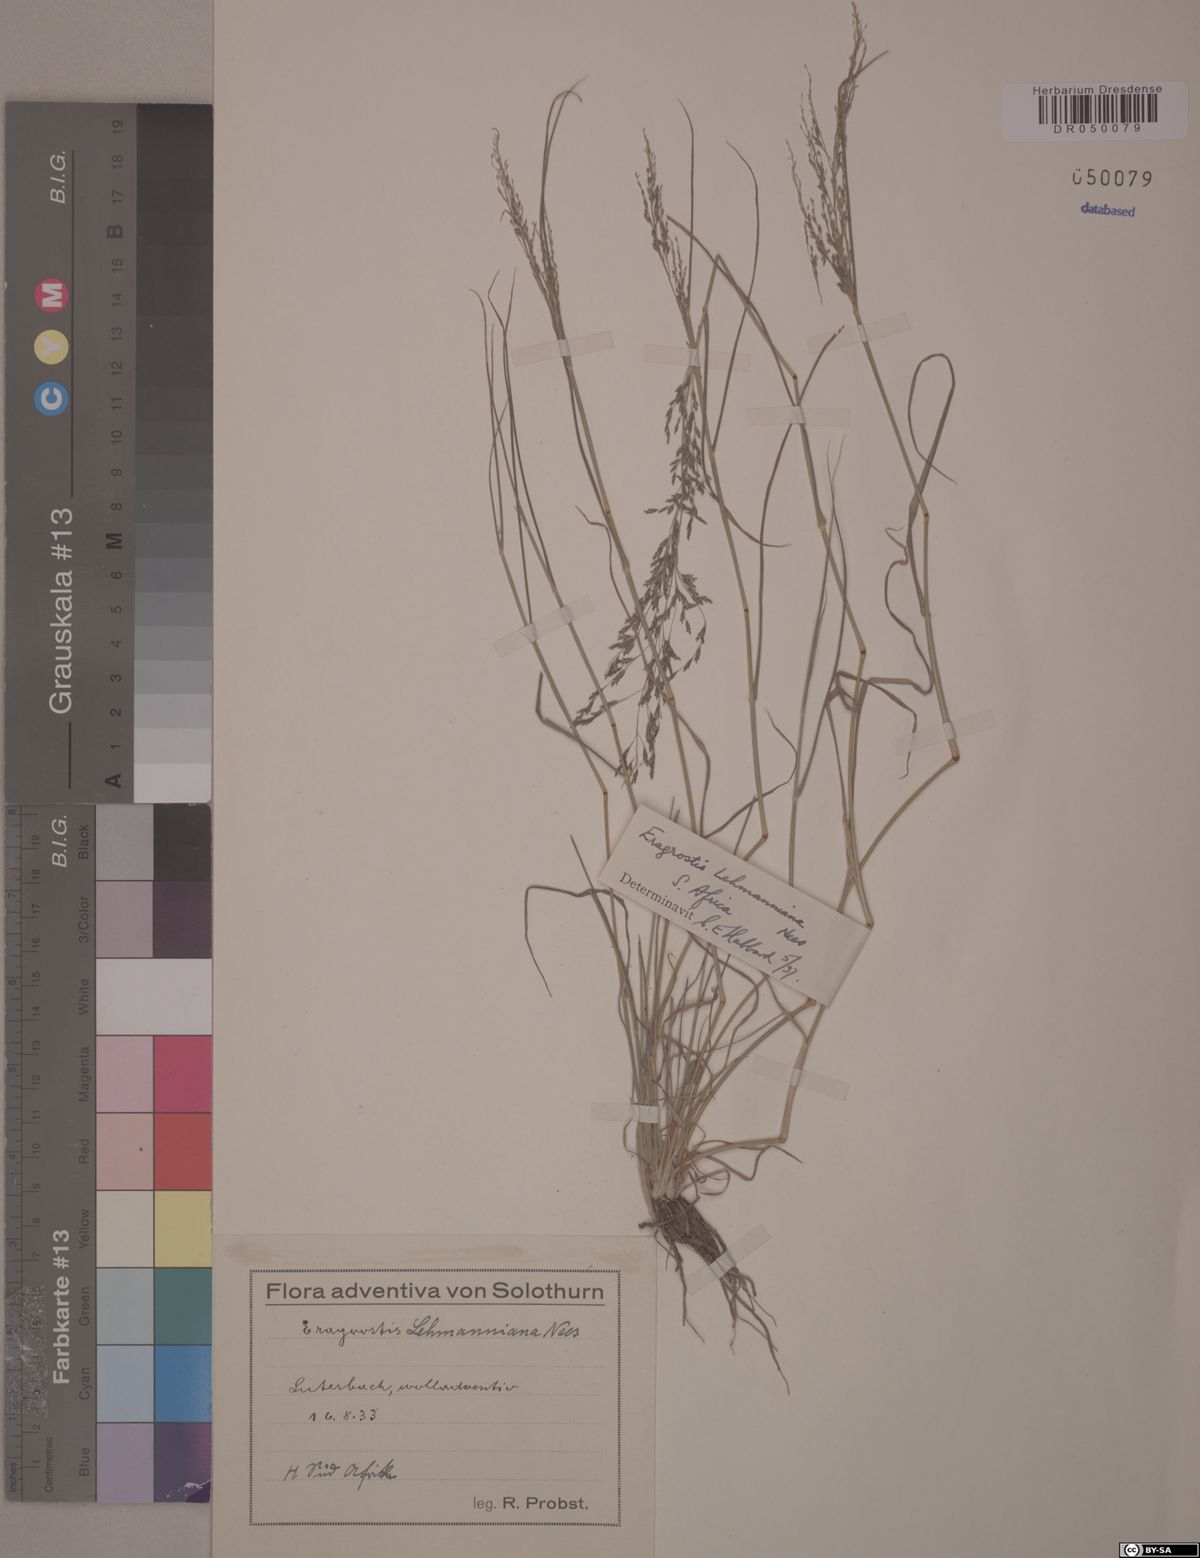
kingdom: Plantae
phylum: Tracheophyta
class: Liliopsida
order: Poales
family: Poaceae
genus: Eragrostis
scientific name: Eragrostis lehmanniana
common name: Lehmann lovegrass
